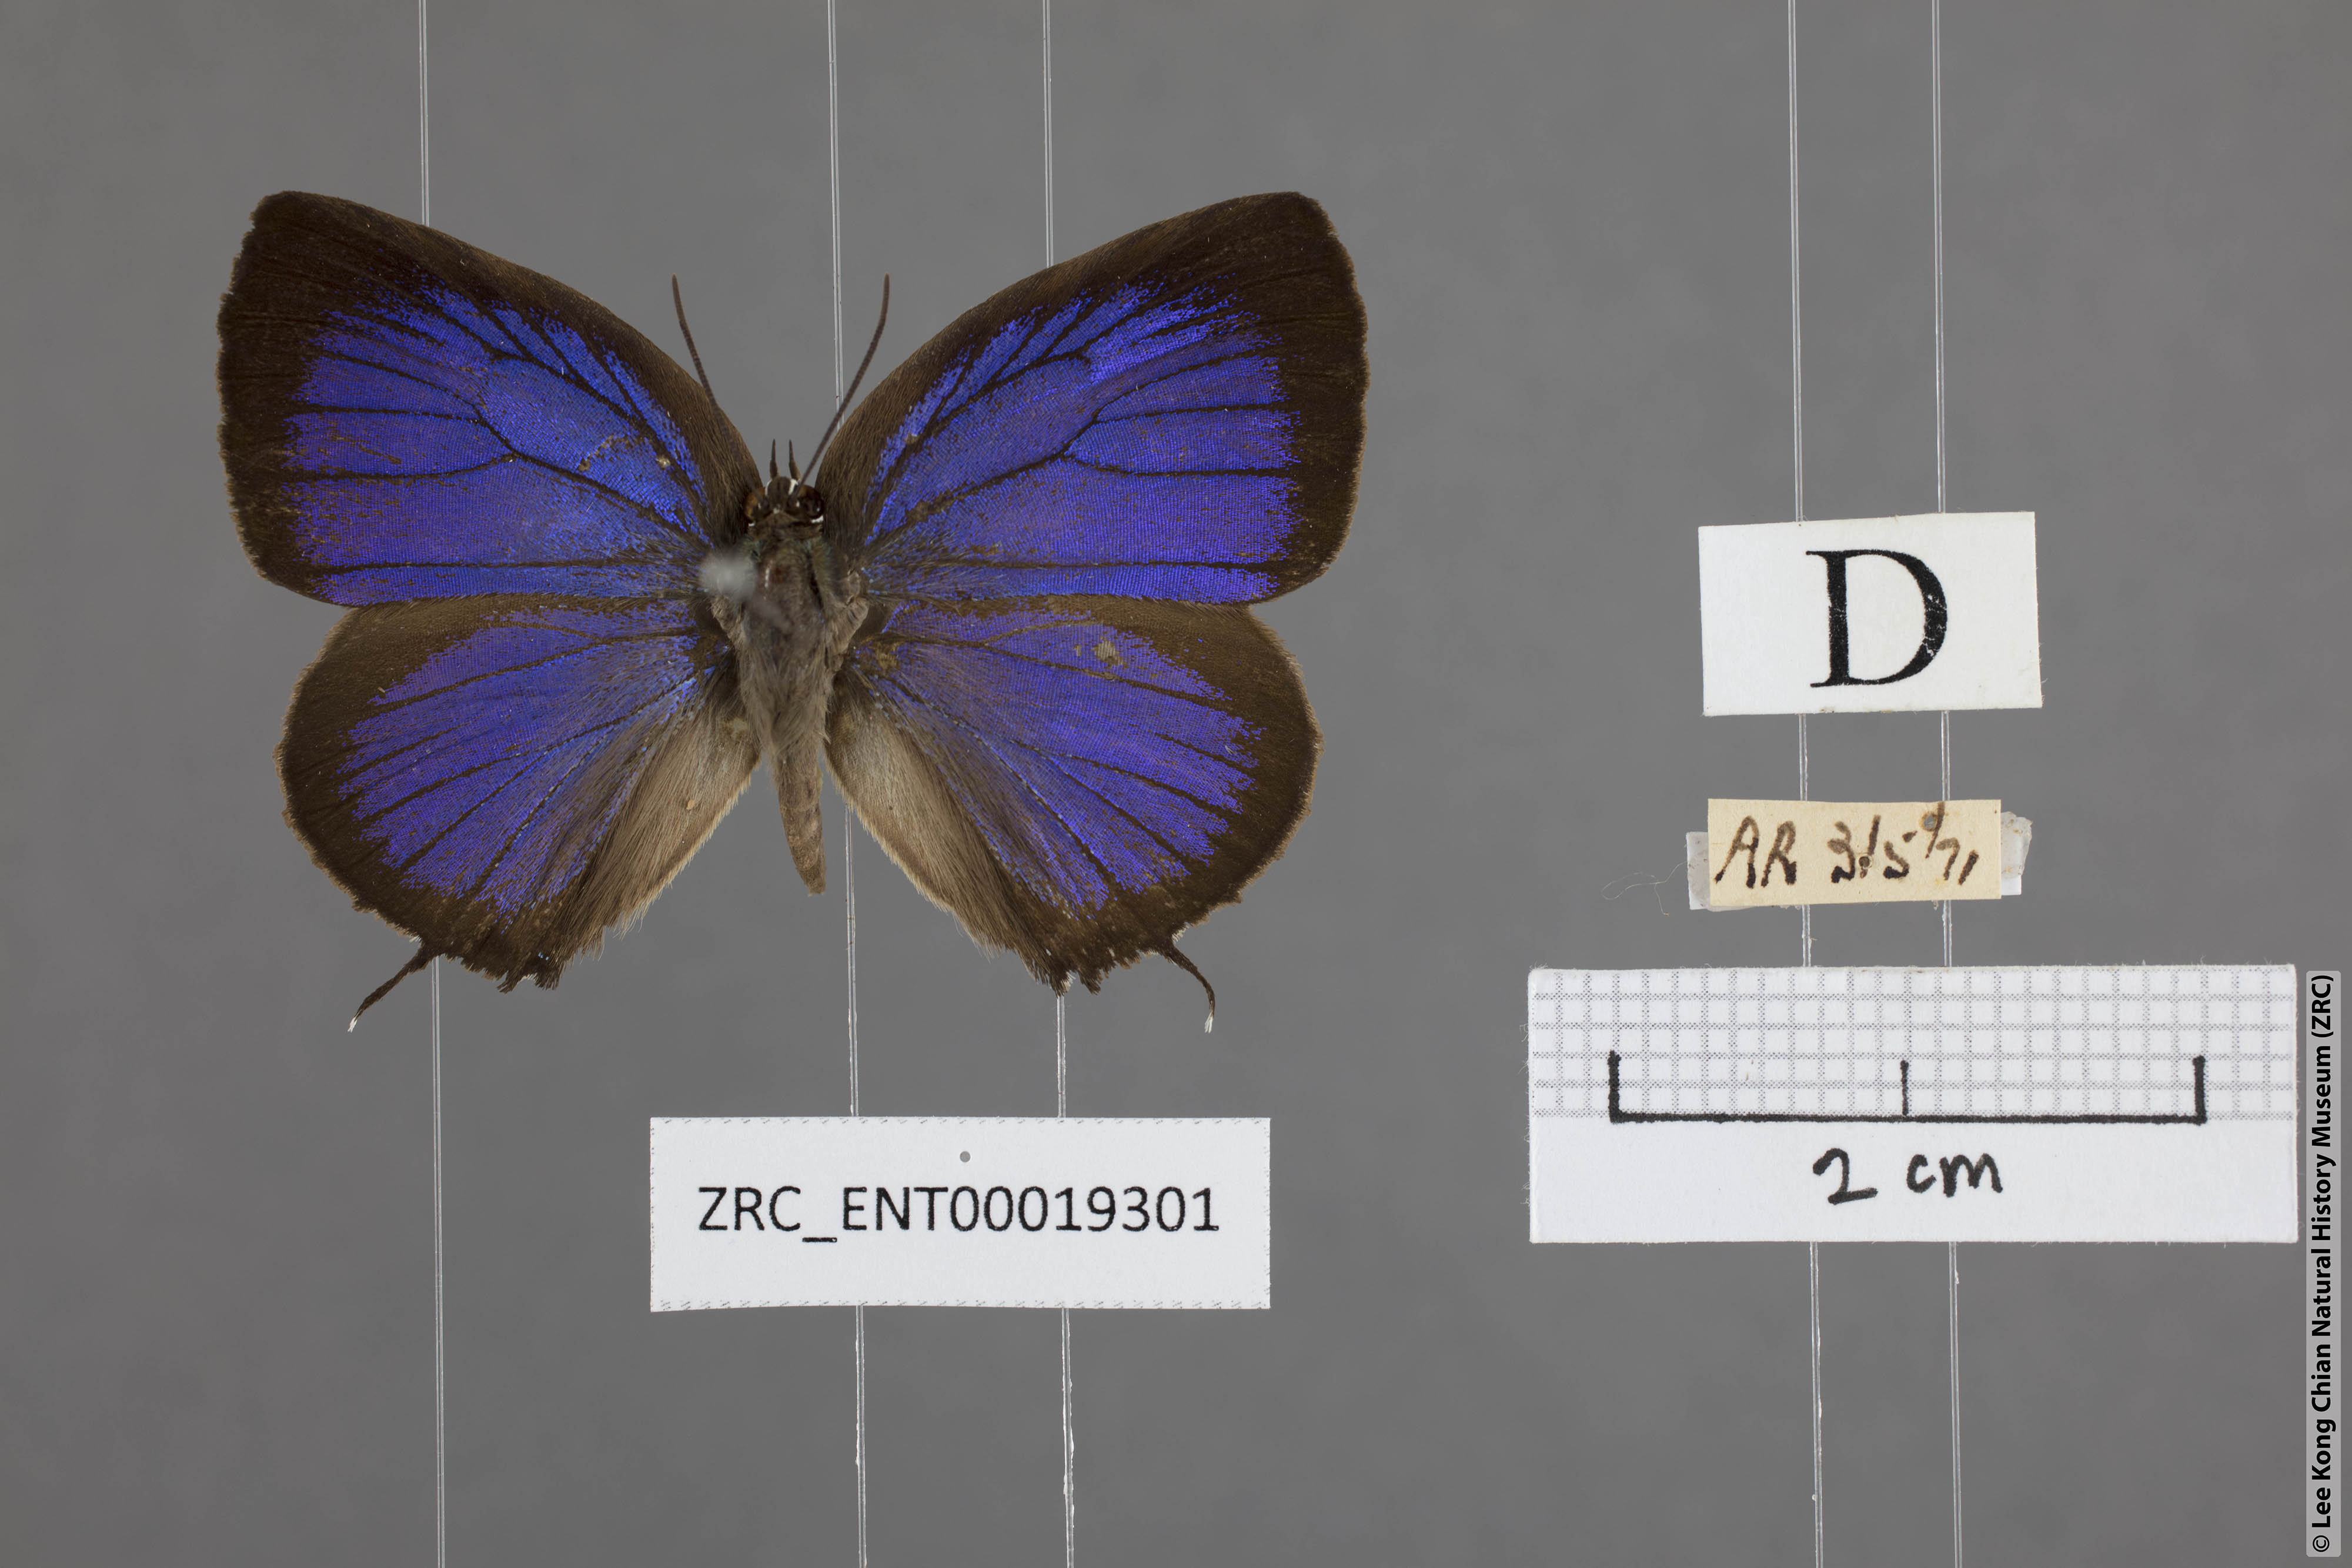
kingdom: Animalia
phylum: Arthropoda
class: Insecta
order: Lepidoptera
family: Lycaenidae
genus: Arhopala
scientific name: Arhopala barami
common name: Wood's oakblue
